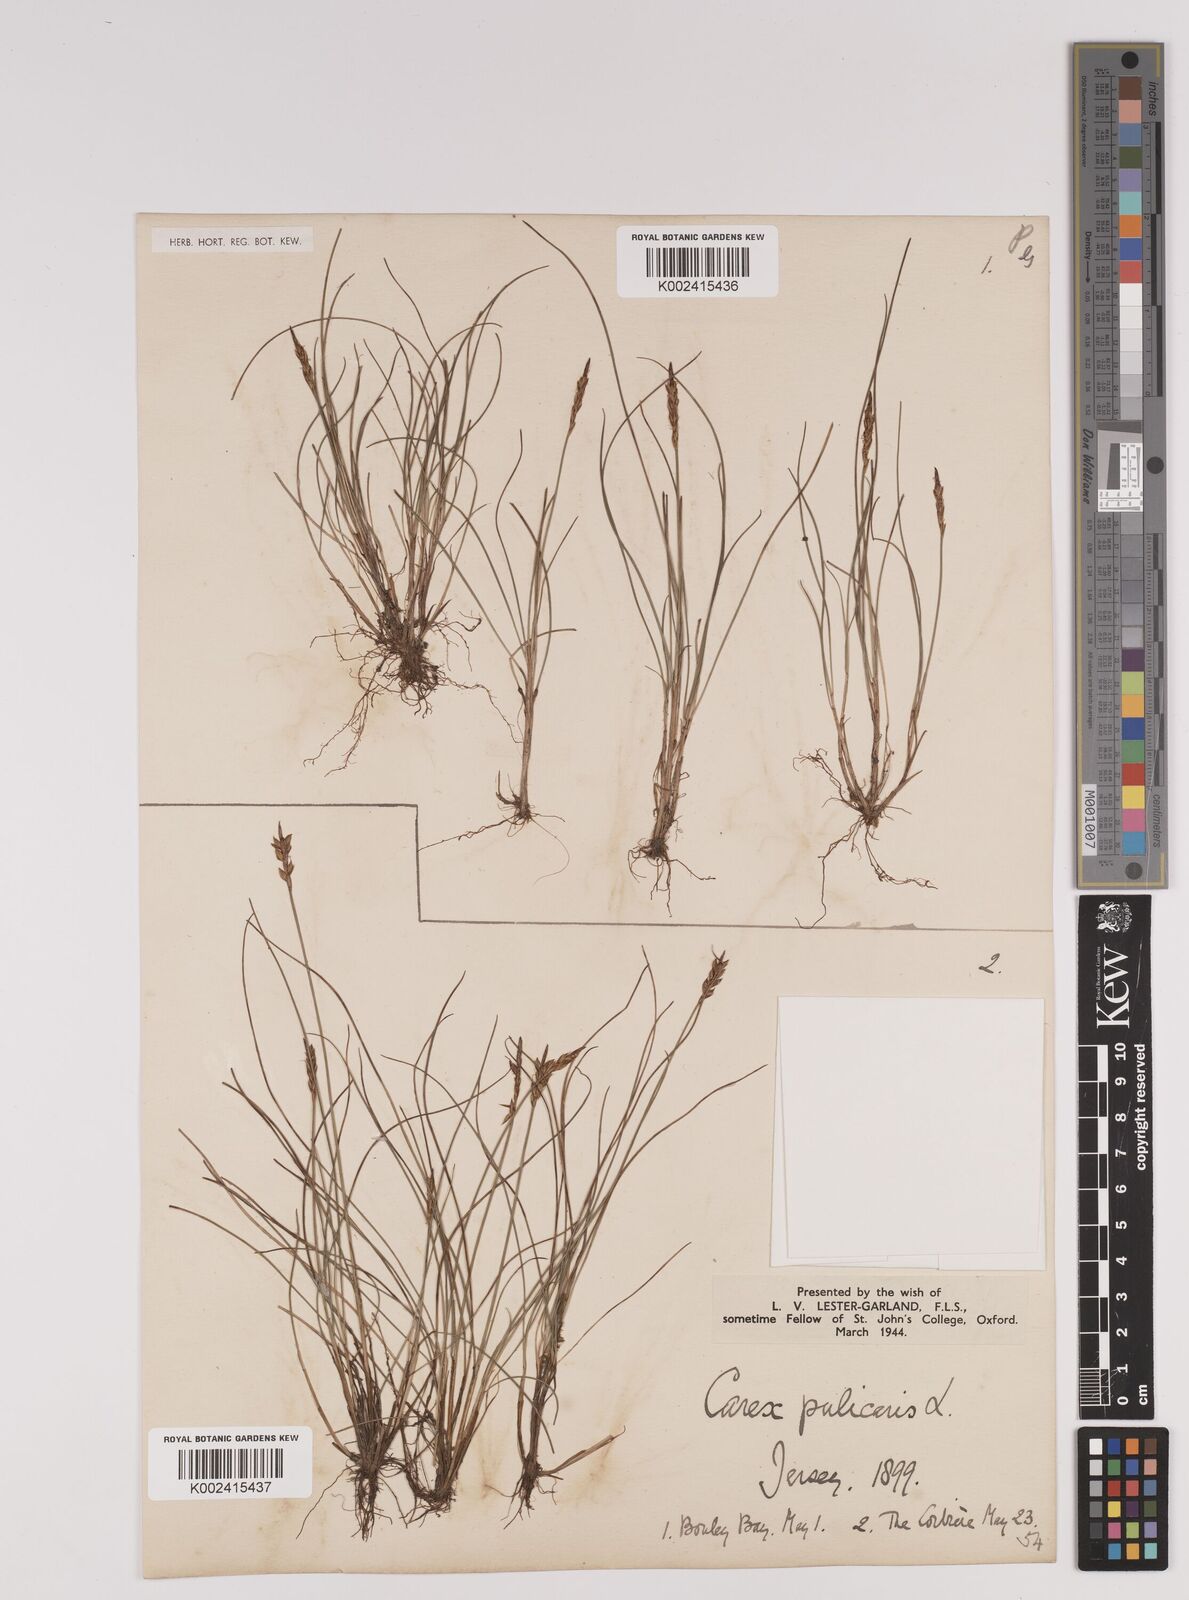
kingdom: Plantae
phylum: Tracheophyta
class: Liliopsida
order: Poales
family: Cyperaceae
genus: Carex
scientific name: Carex pulicaris
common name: Flea sedge
